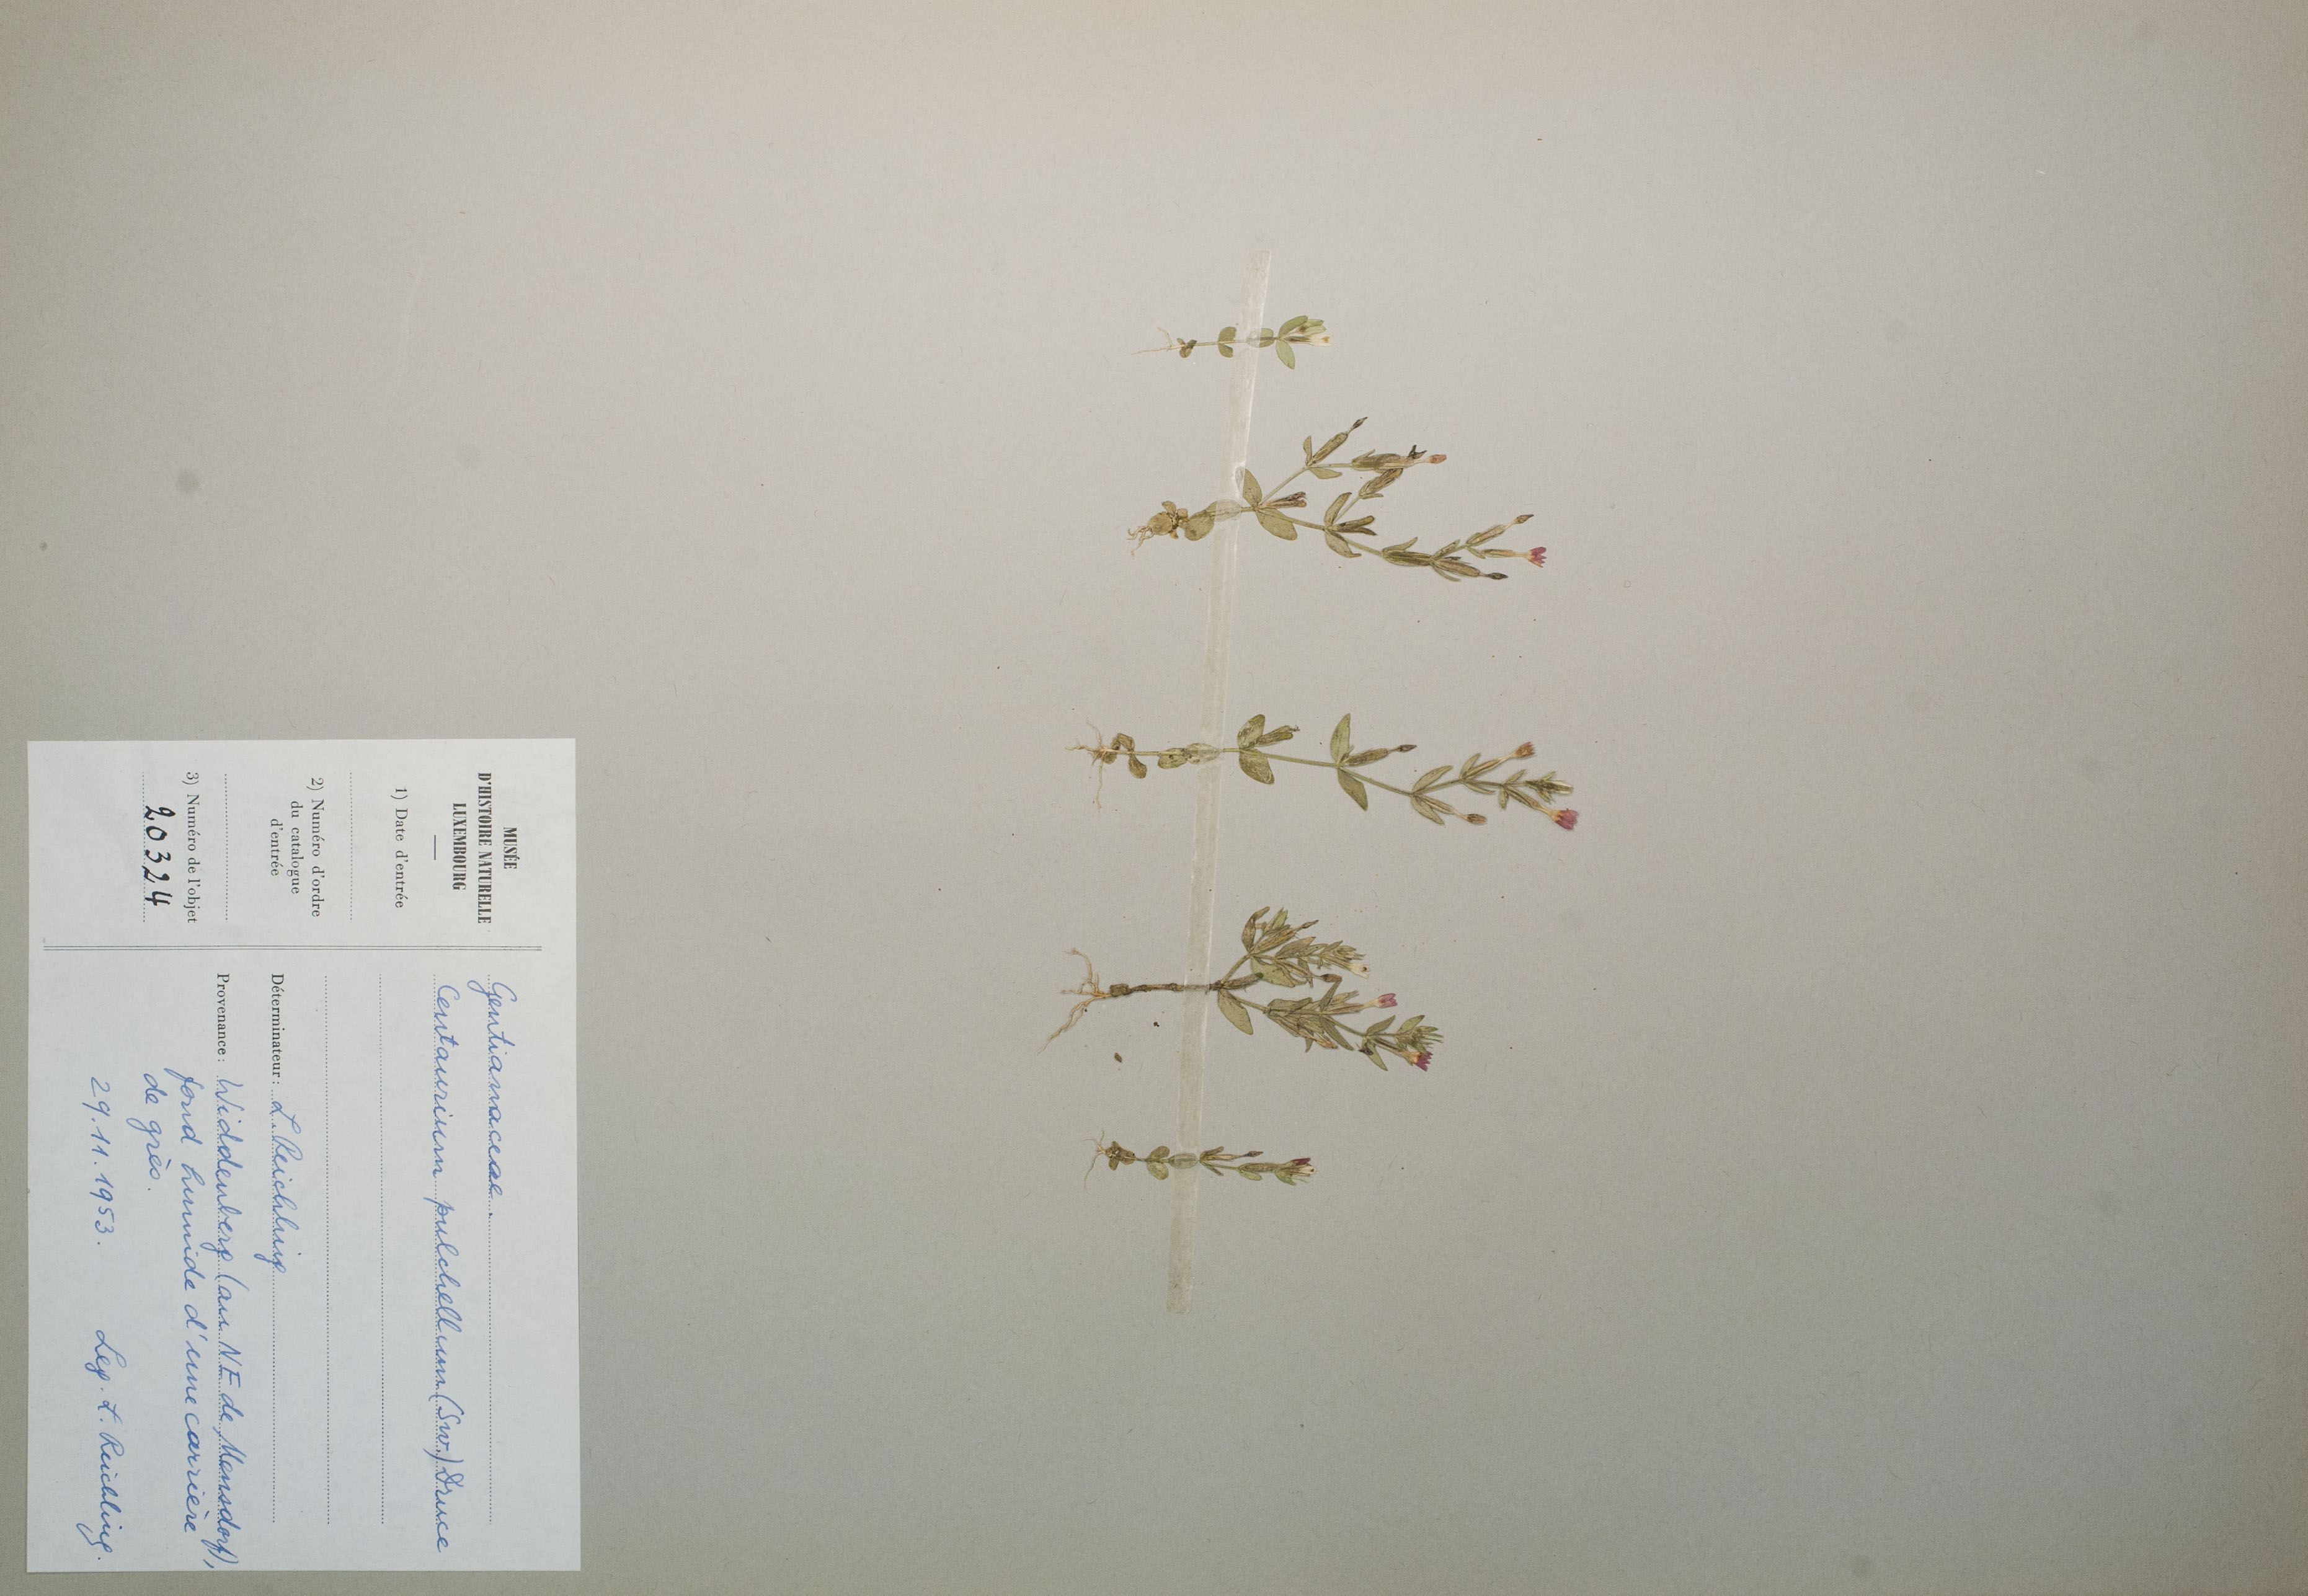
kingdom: Plantae
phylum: Tracheophyta
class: Magnoliopsida
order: Gentianales
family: Gentianaceae
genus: Centaurium
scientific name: Centaurium pulchellum
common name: Lesser centaury
